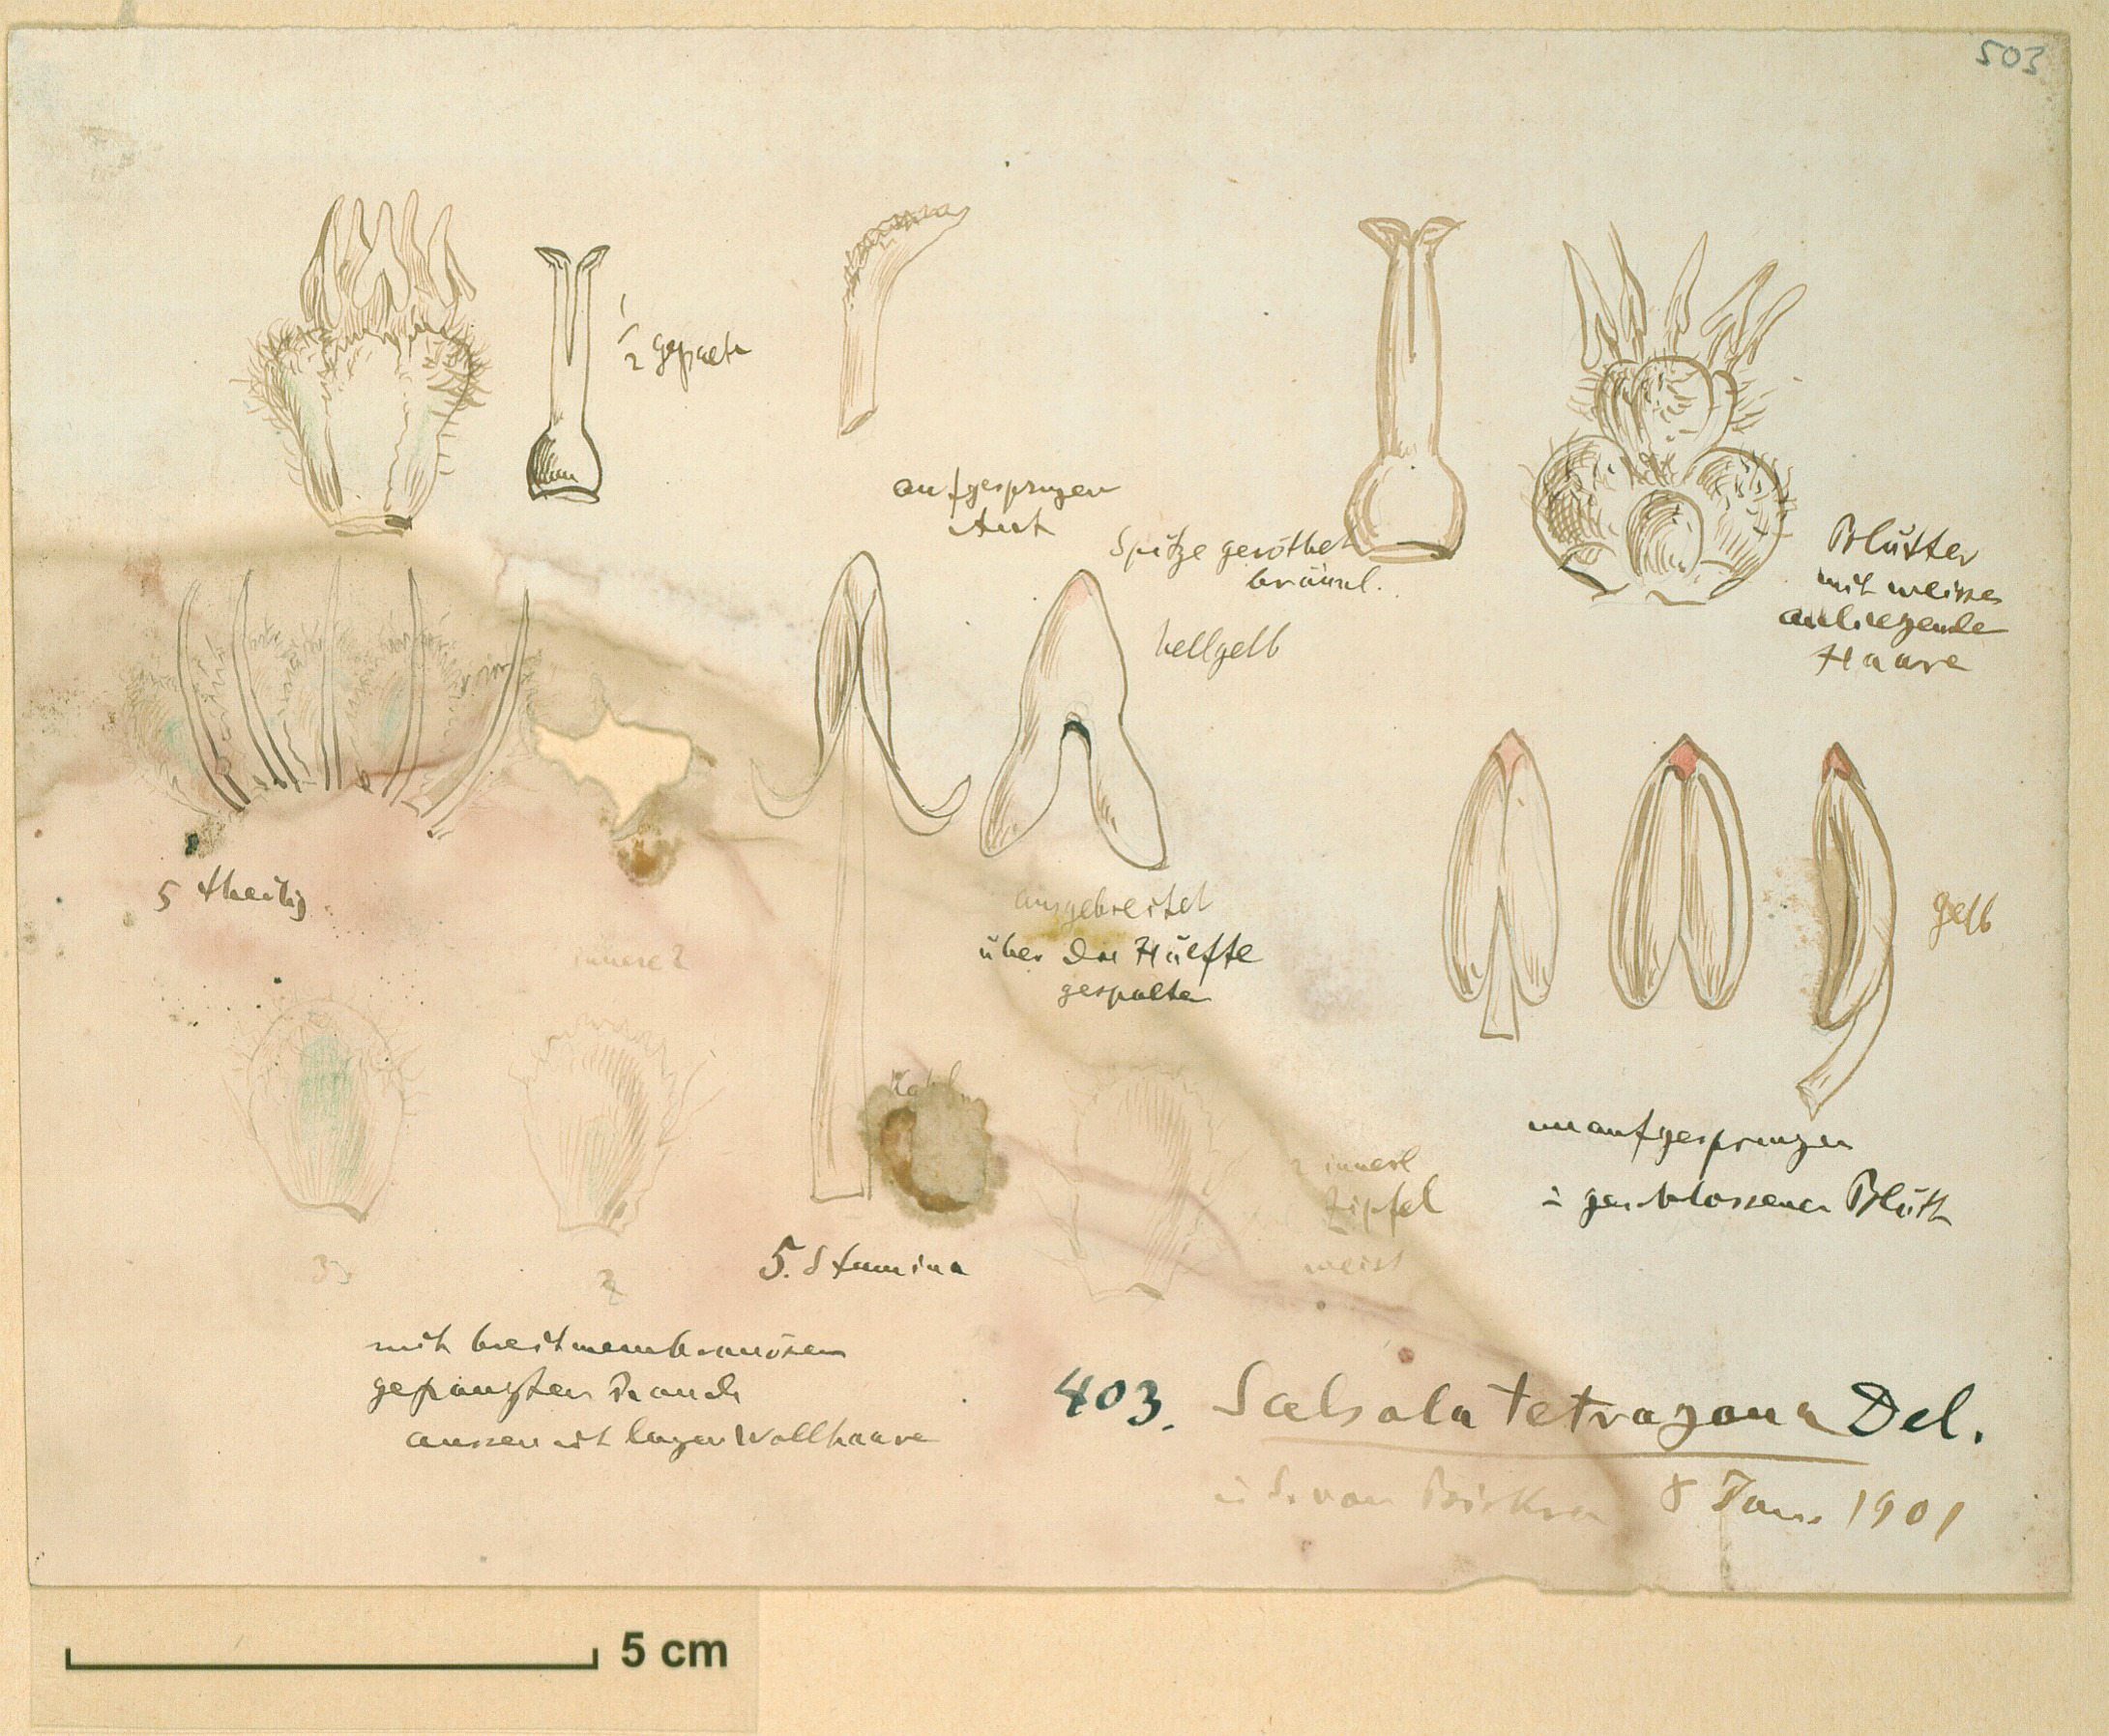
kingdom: Plantae
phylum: Tracheophyta
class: Magnoliopsida
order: Caryophyllales
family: Amaranthaceae
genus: Caroxylon
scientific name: Caroxylon tetrandrum
